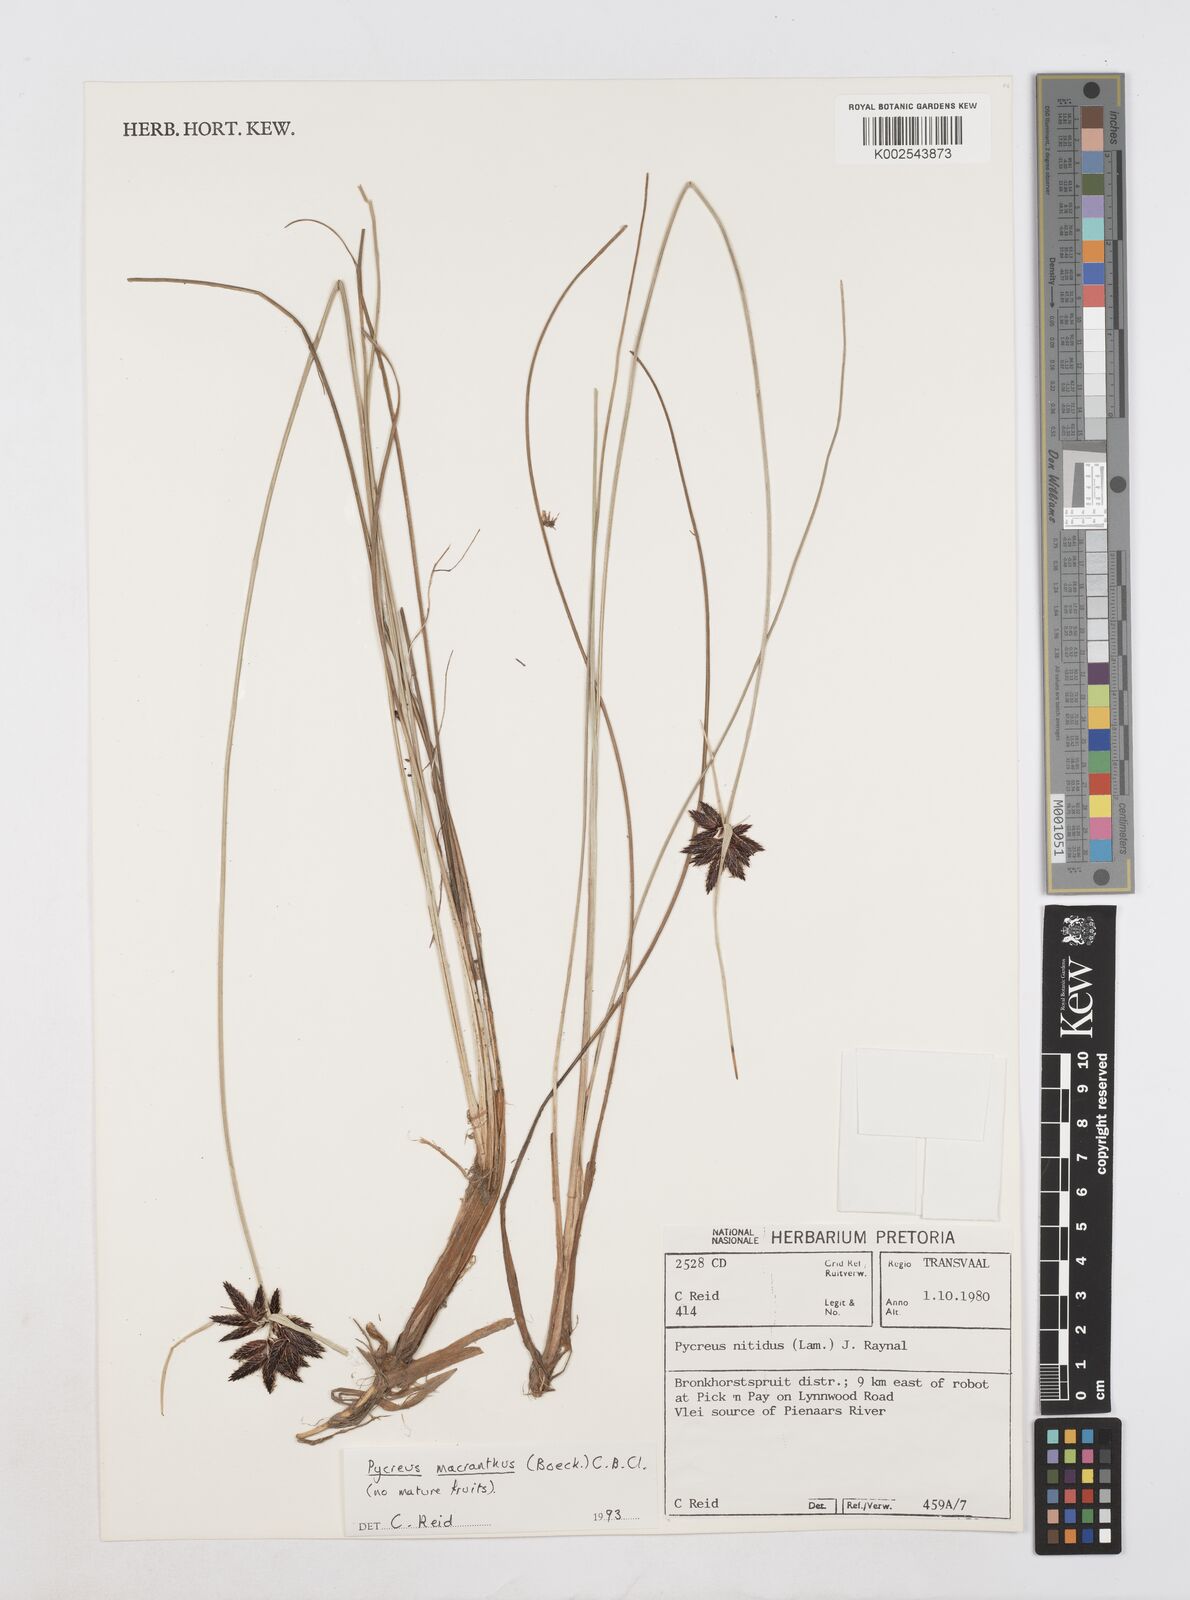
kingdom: Plantae
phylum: Tracheophyta
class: Liliopsida
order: Poales
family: Cyperaceae
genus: Cyperus
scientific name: Cyperus nigricans
